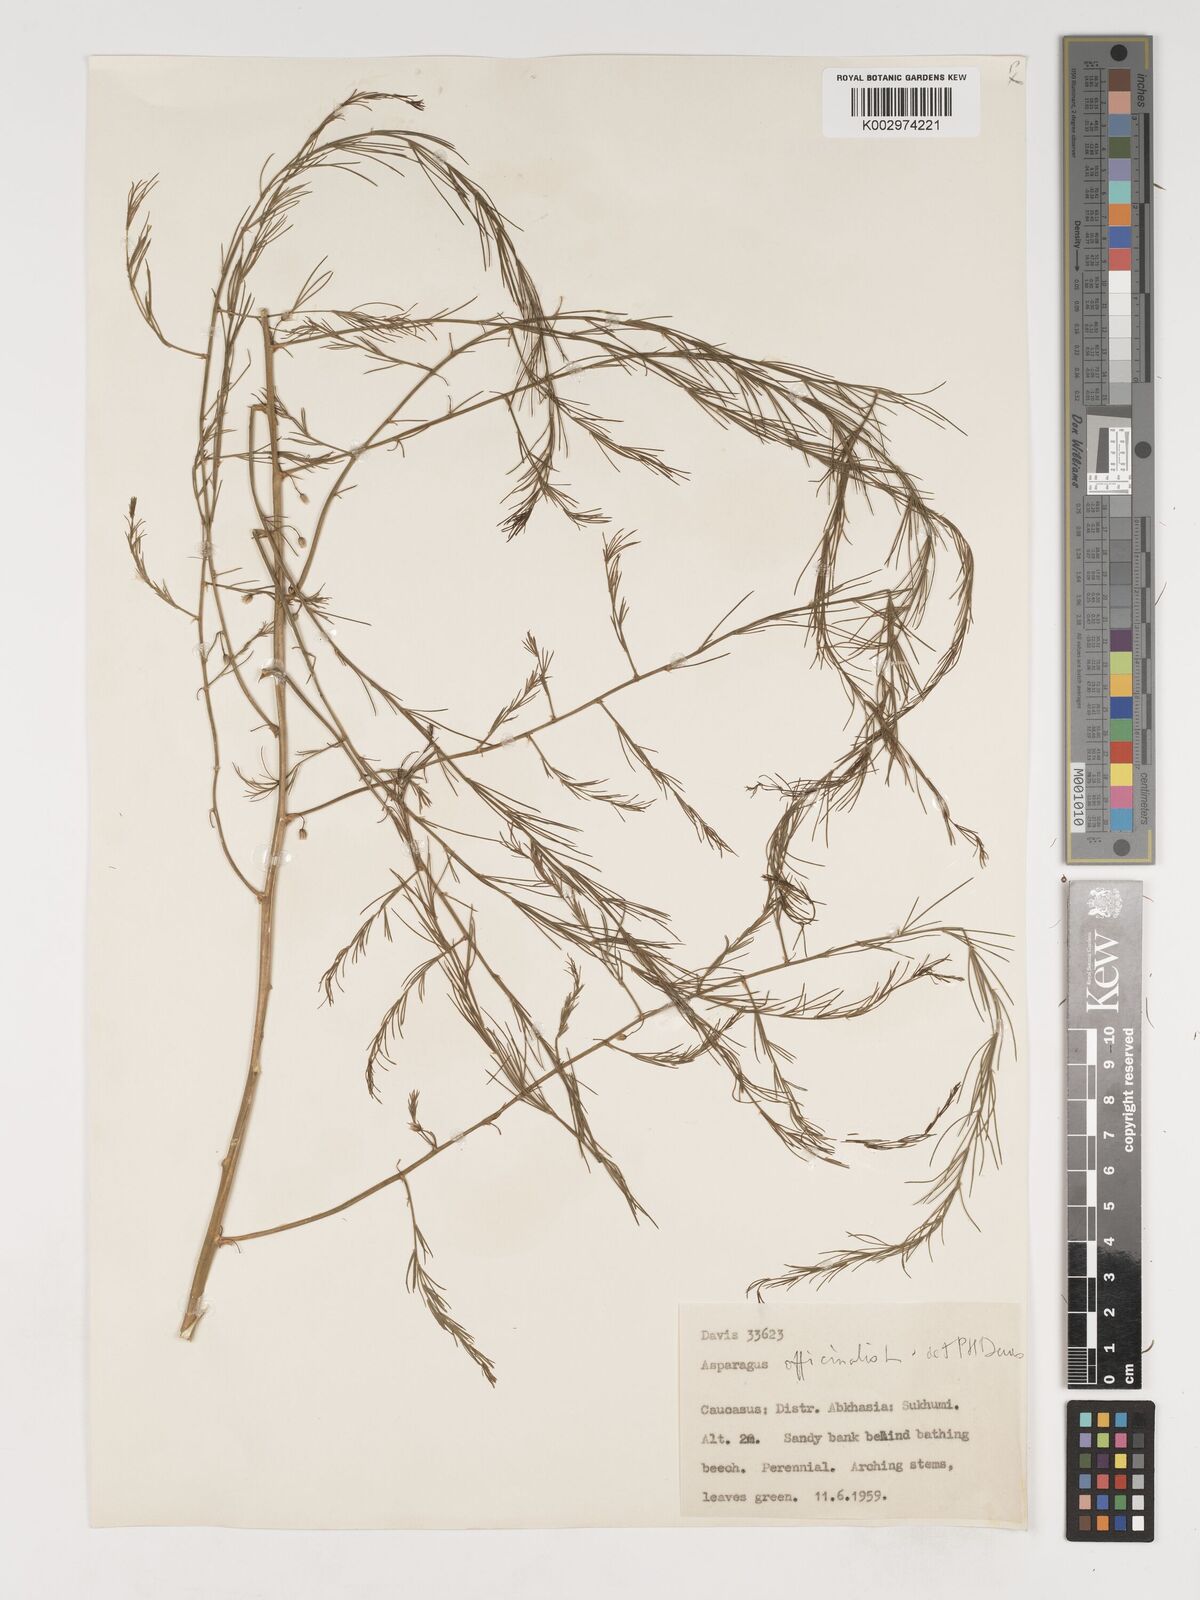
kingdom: Plantae
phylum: Tracheophyta
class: Liliopsida
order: Asparagales
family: Asparagaceae
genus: Asparagus
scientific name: Asparagus officinalis
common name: Garden asparagus
